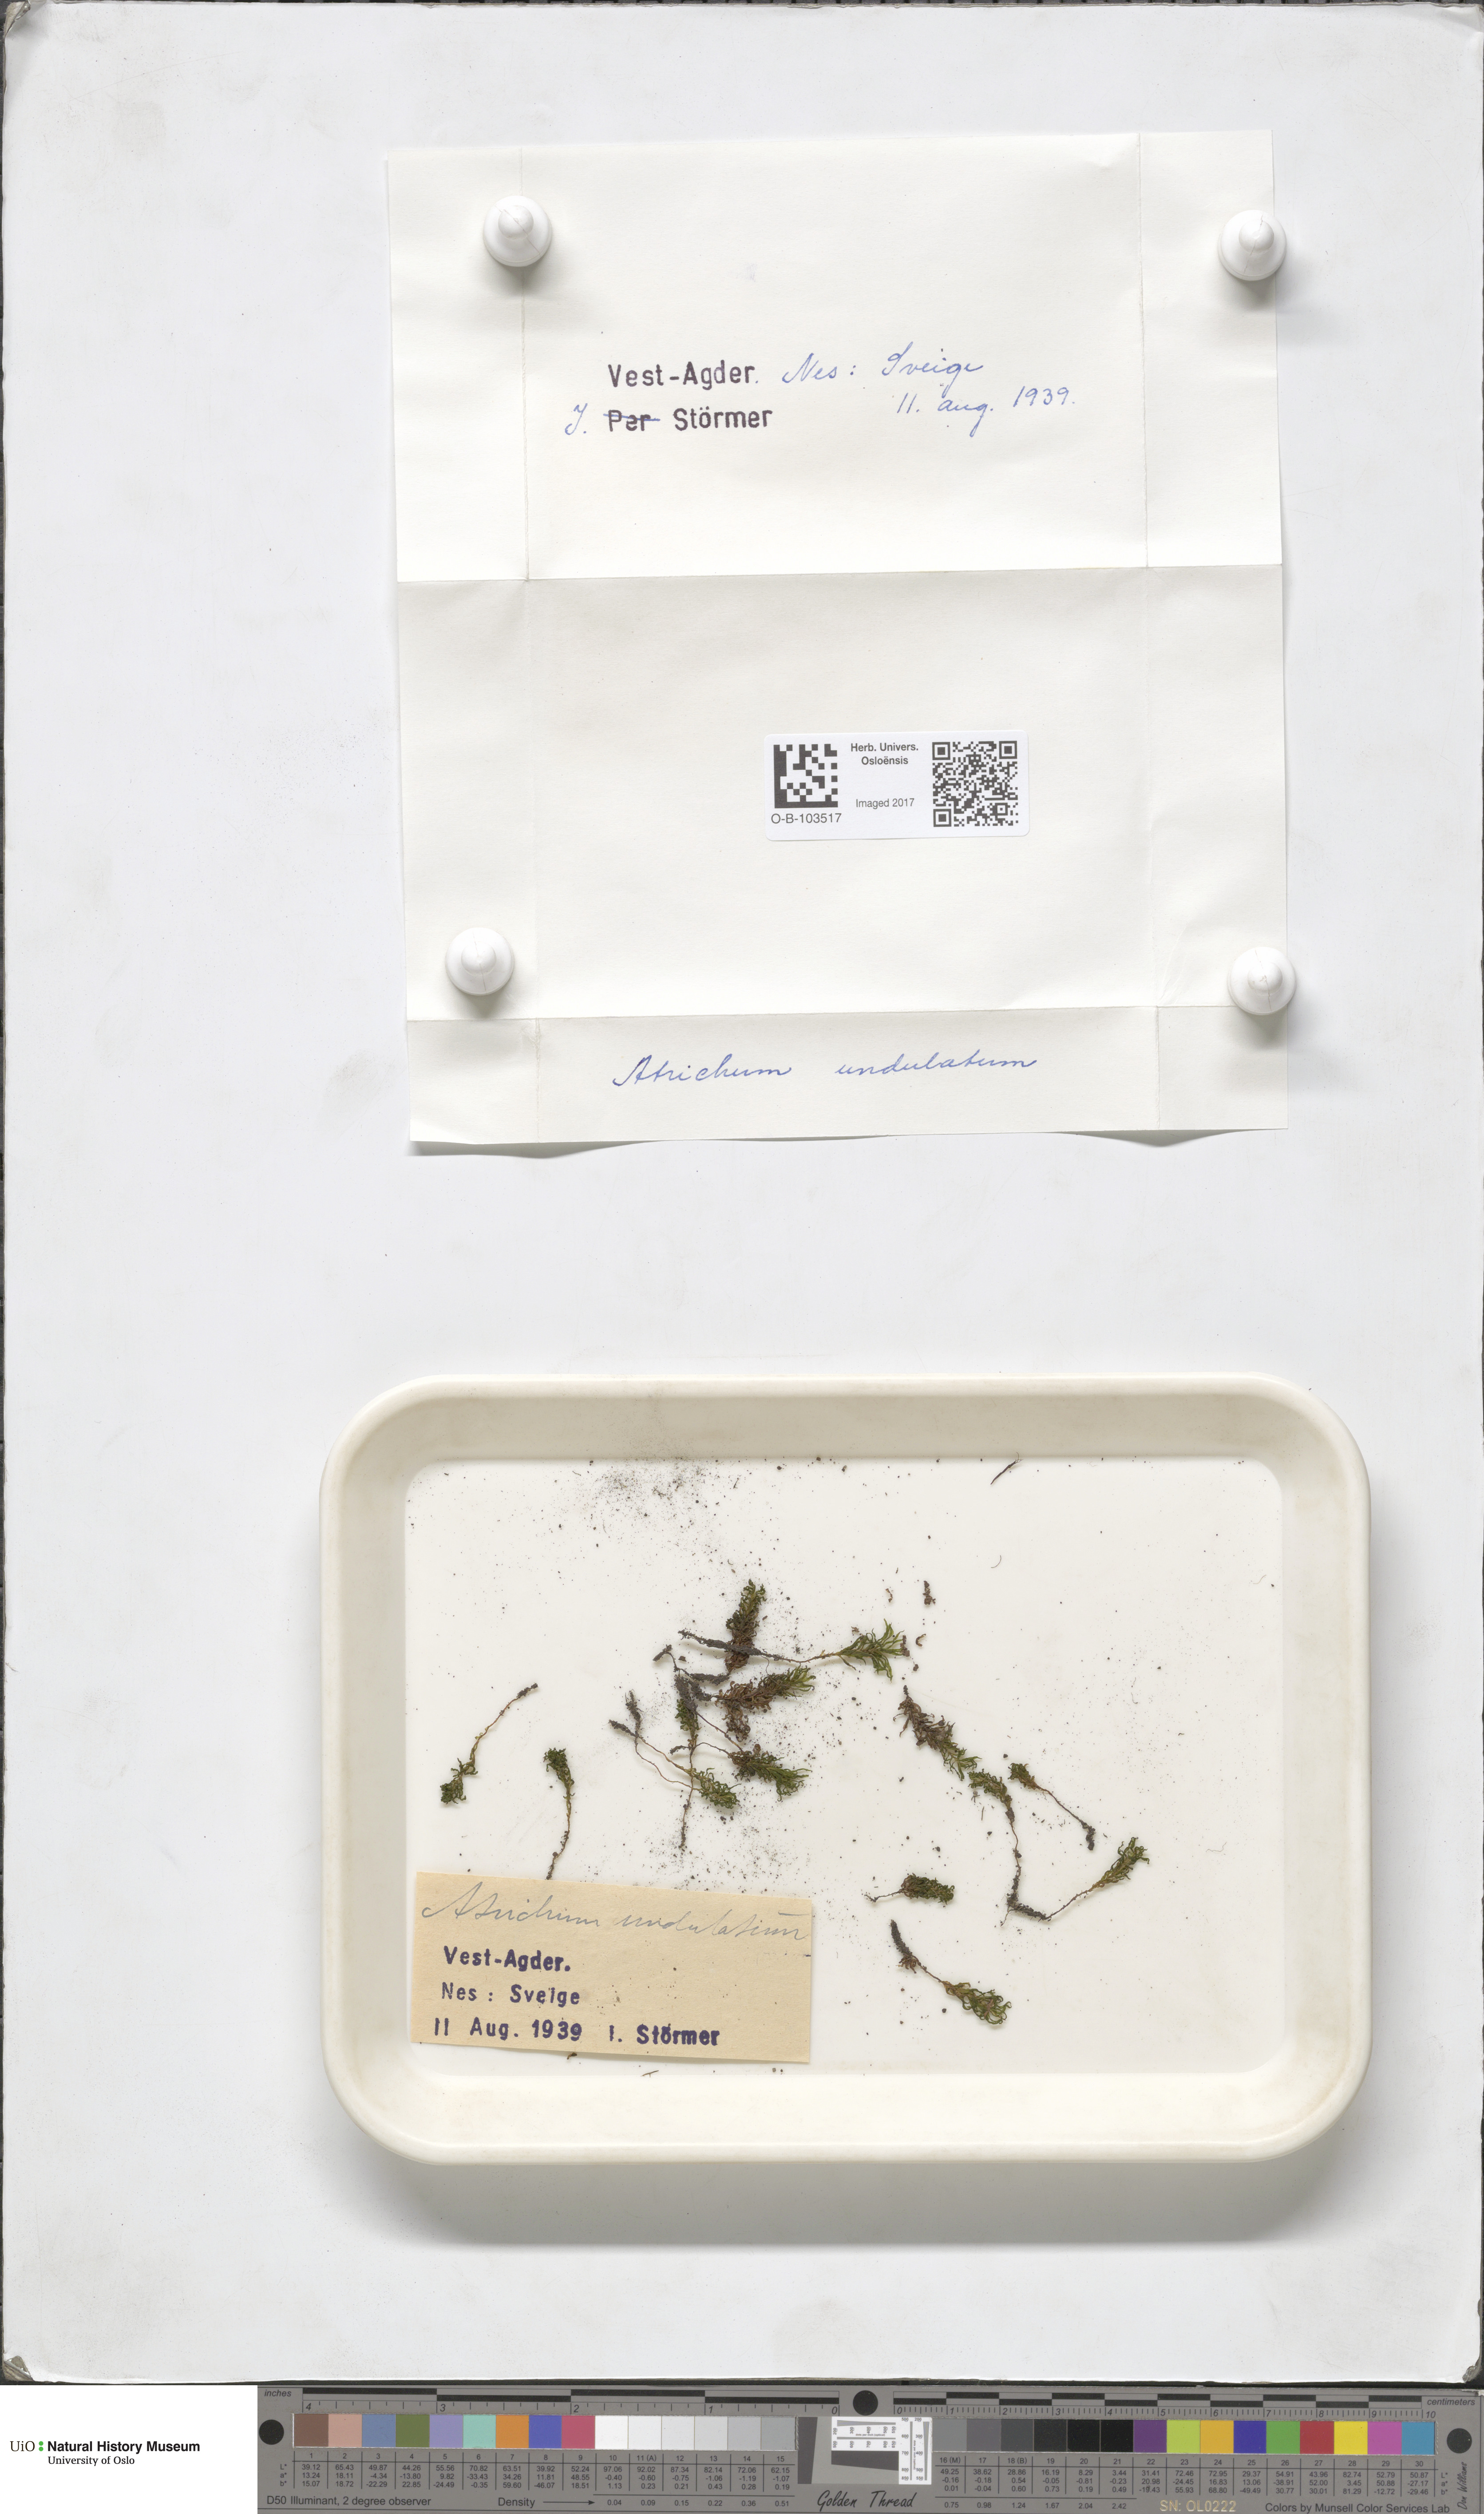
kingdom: Plantae
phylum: Bryophyta
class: Polytrichopsida
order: Polytrichales
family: Polytrichaceae
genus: Atrichum
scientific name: Atrichum undulatum
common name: Common smoothcap
